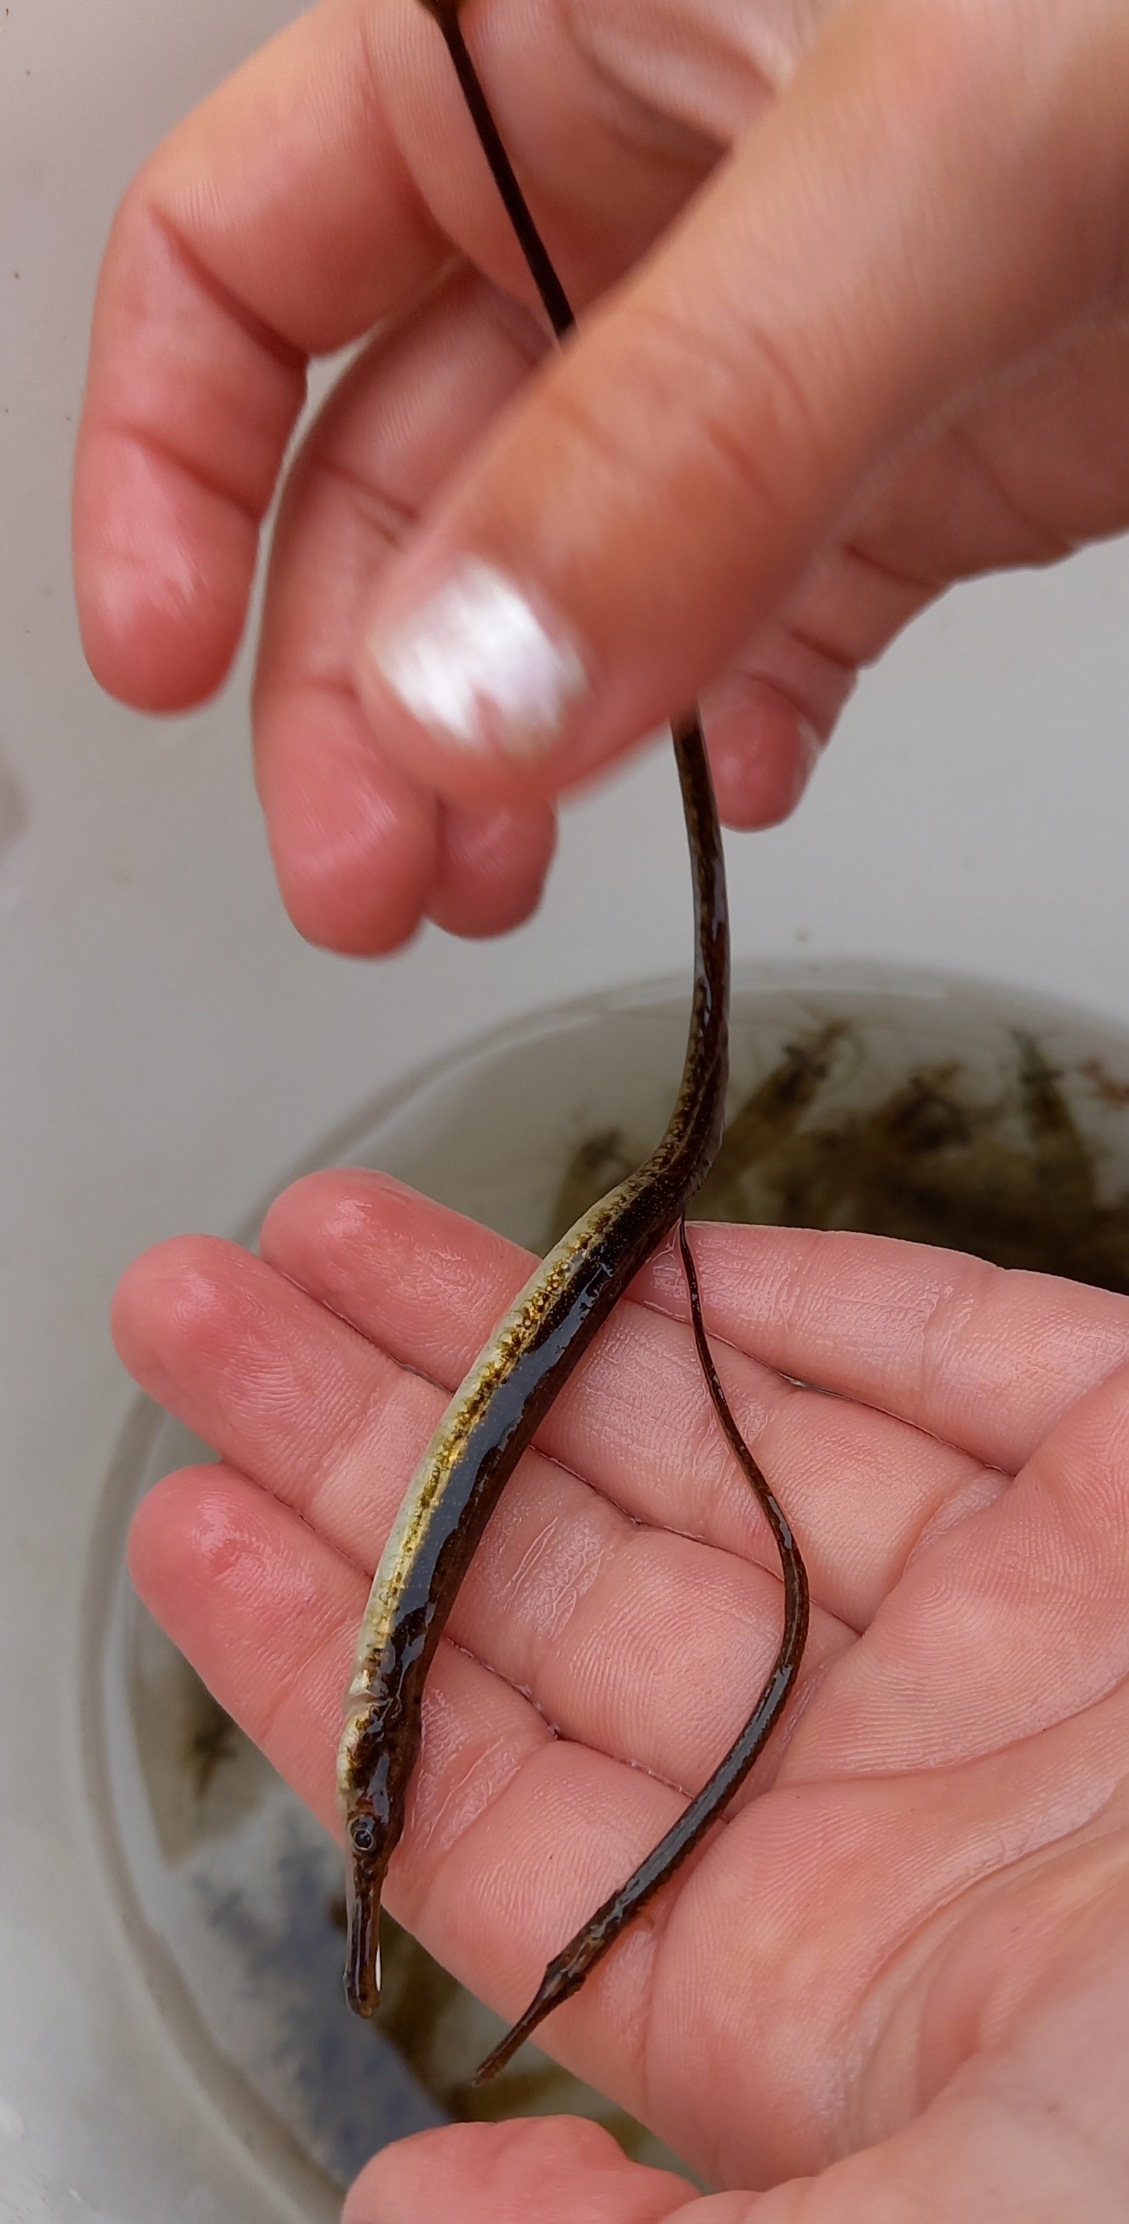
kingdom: Animalia
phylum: Chordata
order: Syngnathiformes
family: Syngnathidae
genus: Syngnathus
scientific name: Syngnathus typhle
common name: Almindelig tangnål
